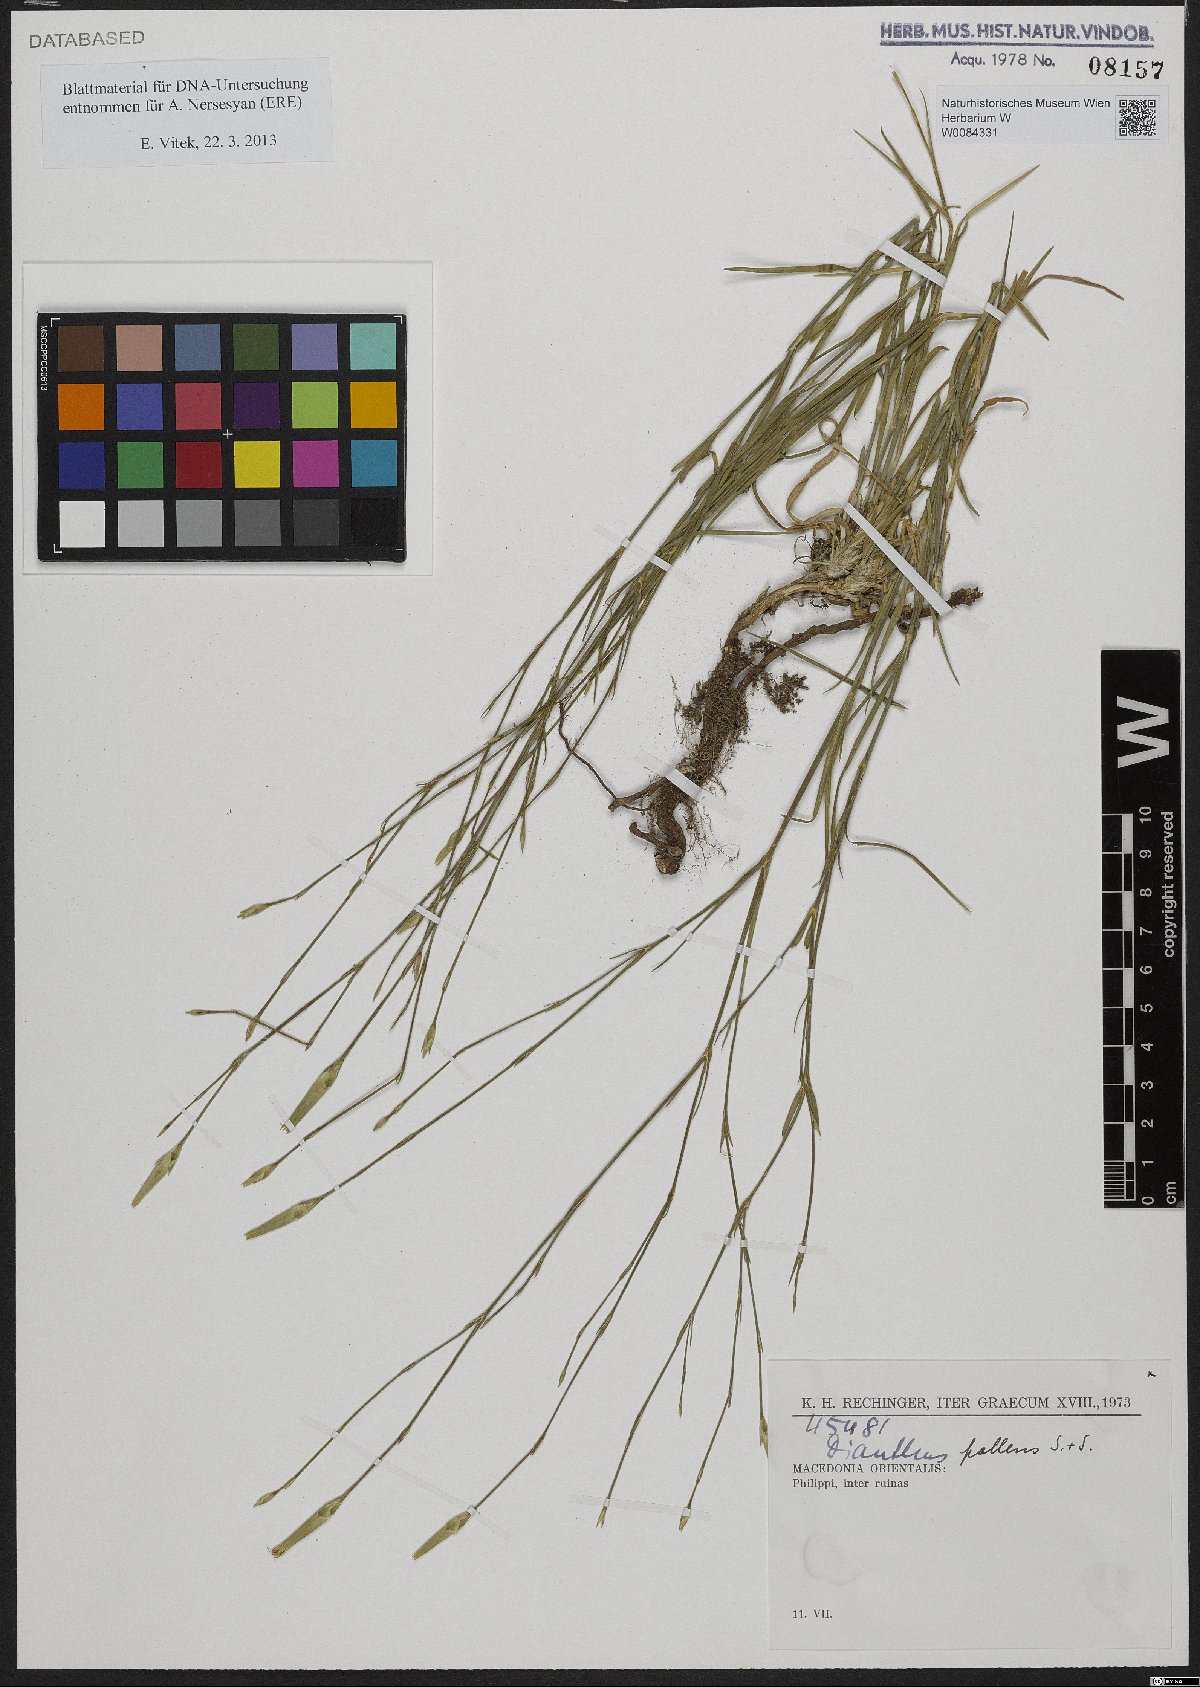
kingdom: Plantae
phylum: Tracheophyta
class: Magnoliopsida
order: Caryophyllales
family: Caryophyllaceae
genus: Dianthus
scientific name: Dianthus monadelphus
